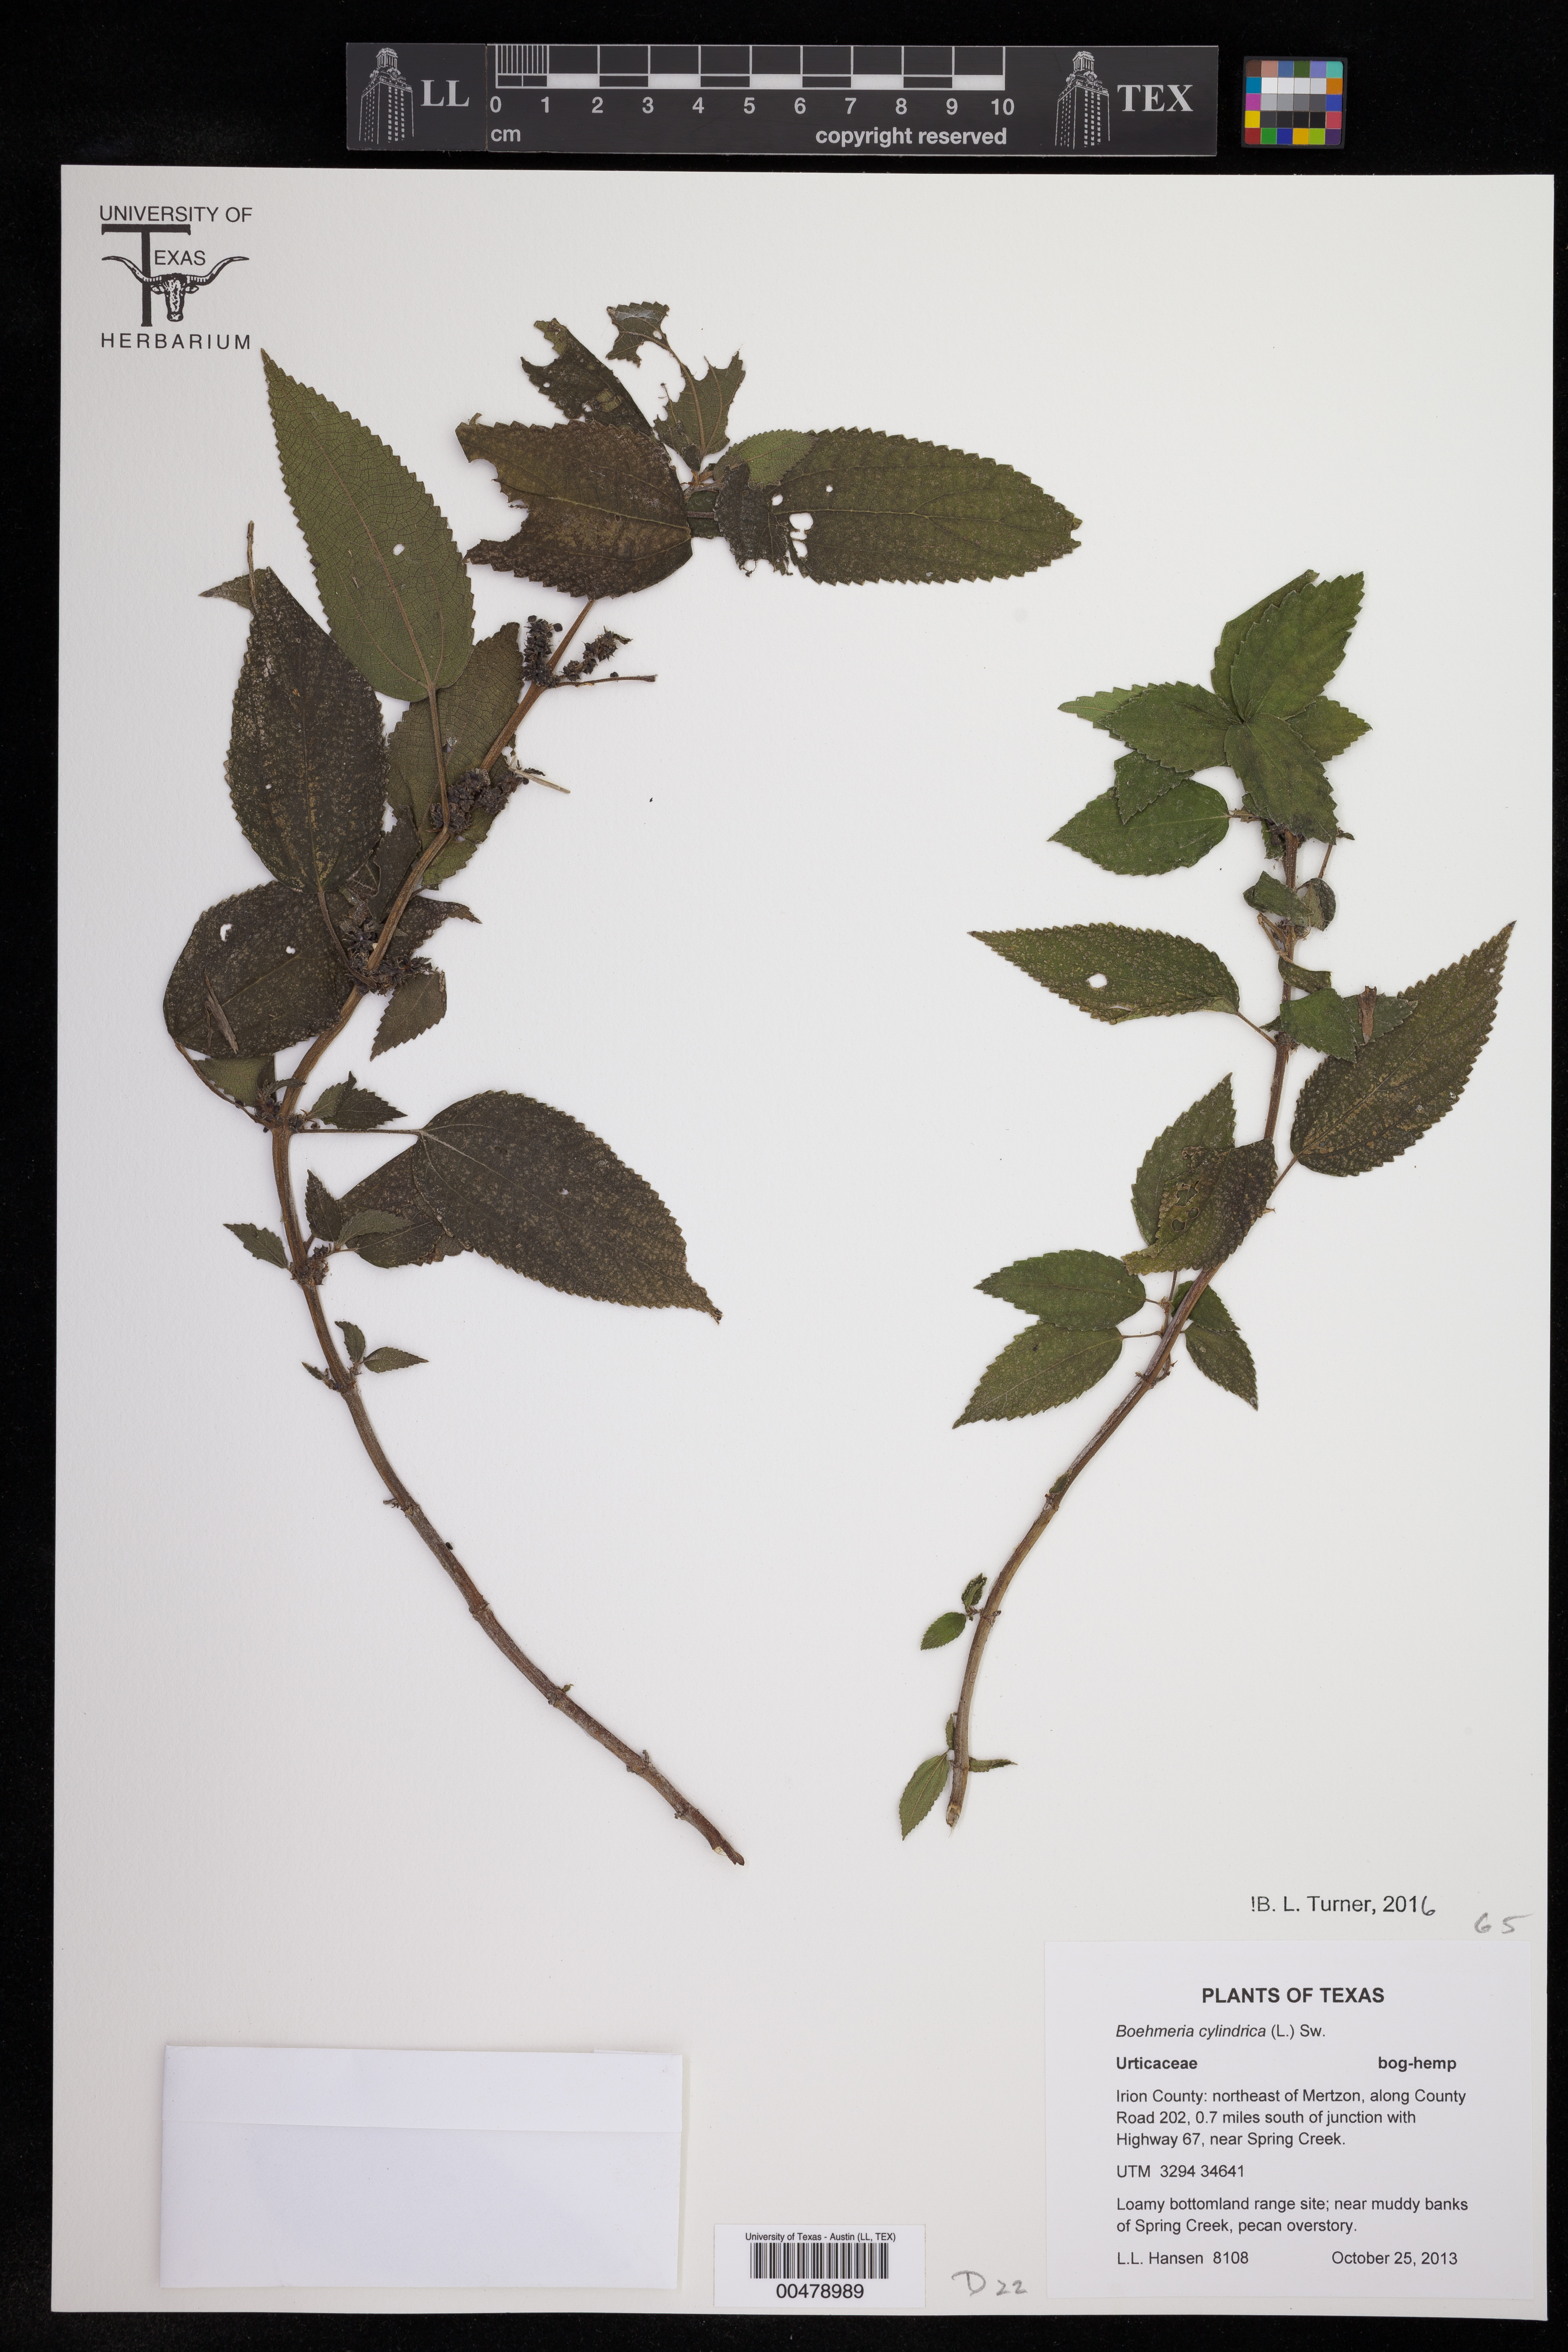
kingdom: Plantae
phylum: Tracheophyta
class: Magnoliopsida
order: Rosales
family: Urticaceae
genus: Boehmeria
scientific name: Boehmeria cylindrica
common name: Bog-hemp
